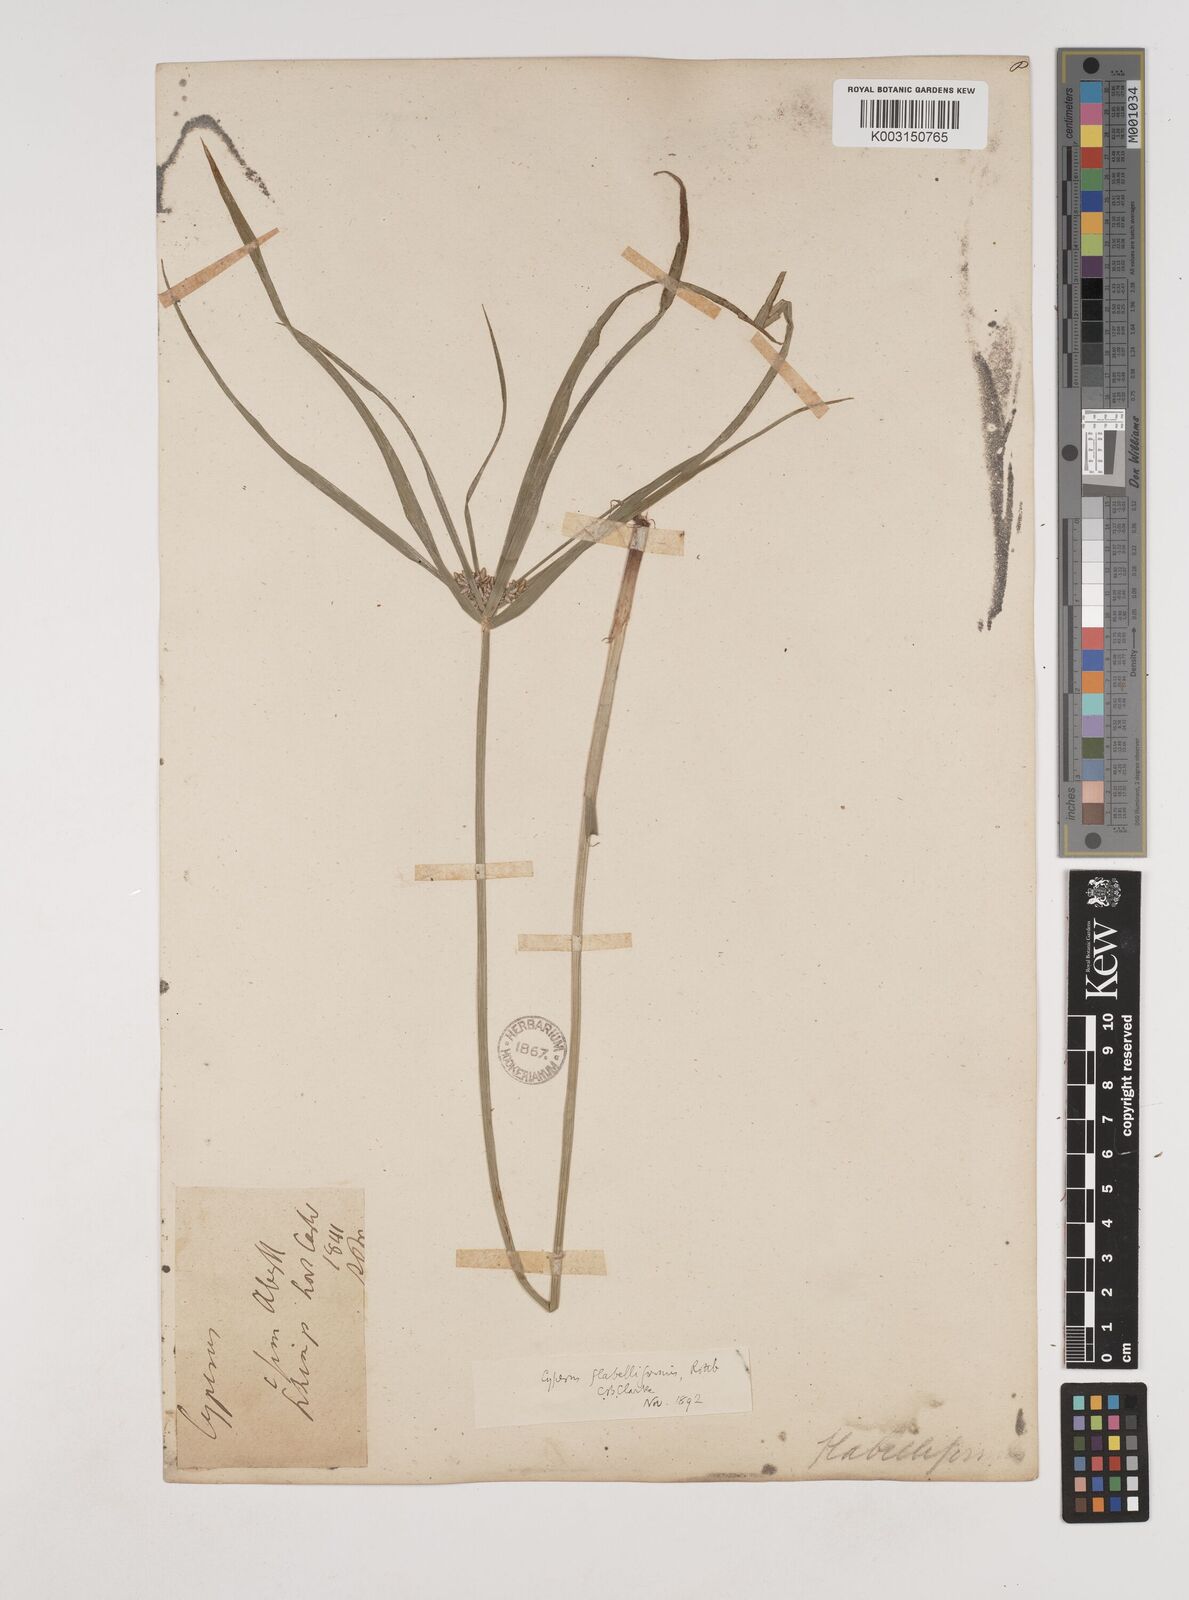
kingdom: Plantae
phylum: Tracheophyta
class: Liliopsida
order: Poales
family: Cyperaceae
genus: Cyperus
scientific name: Cyperus alternifolius
